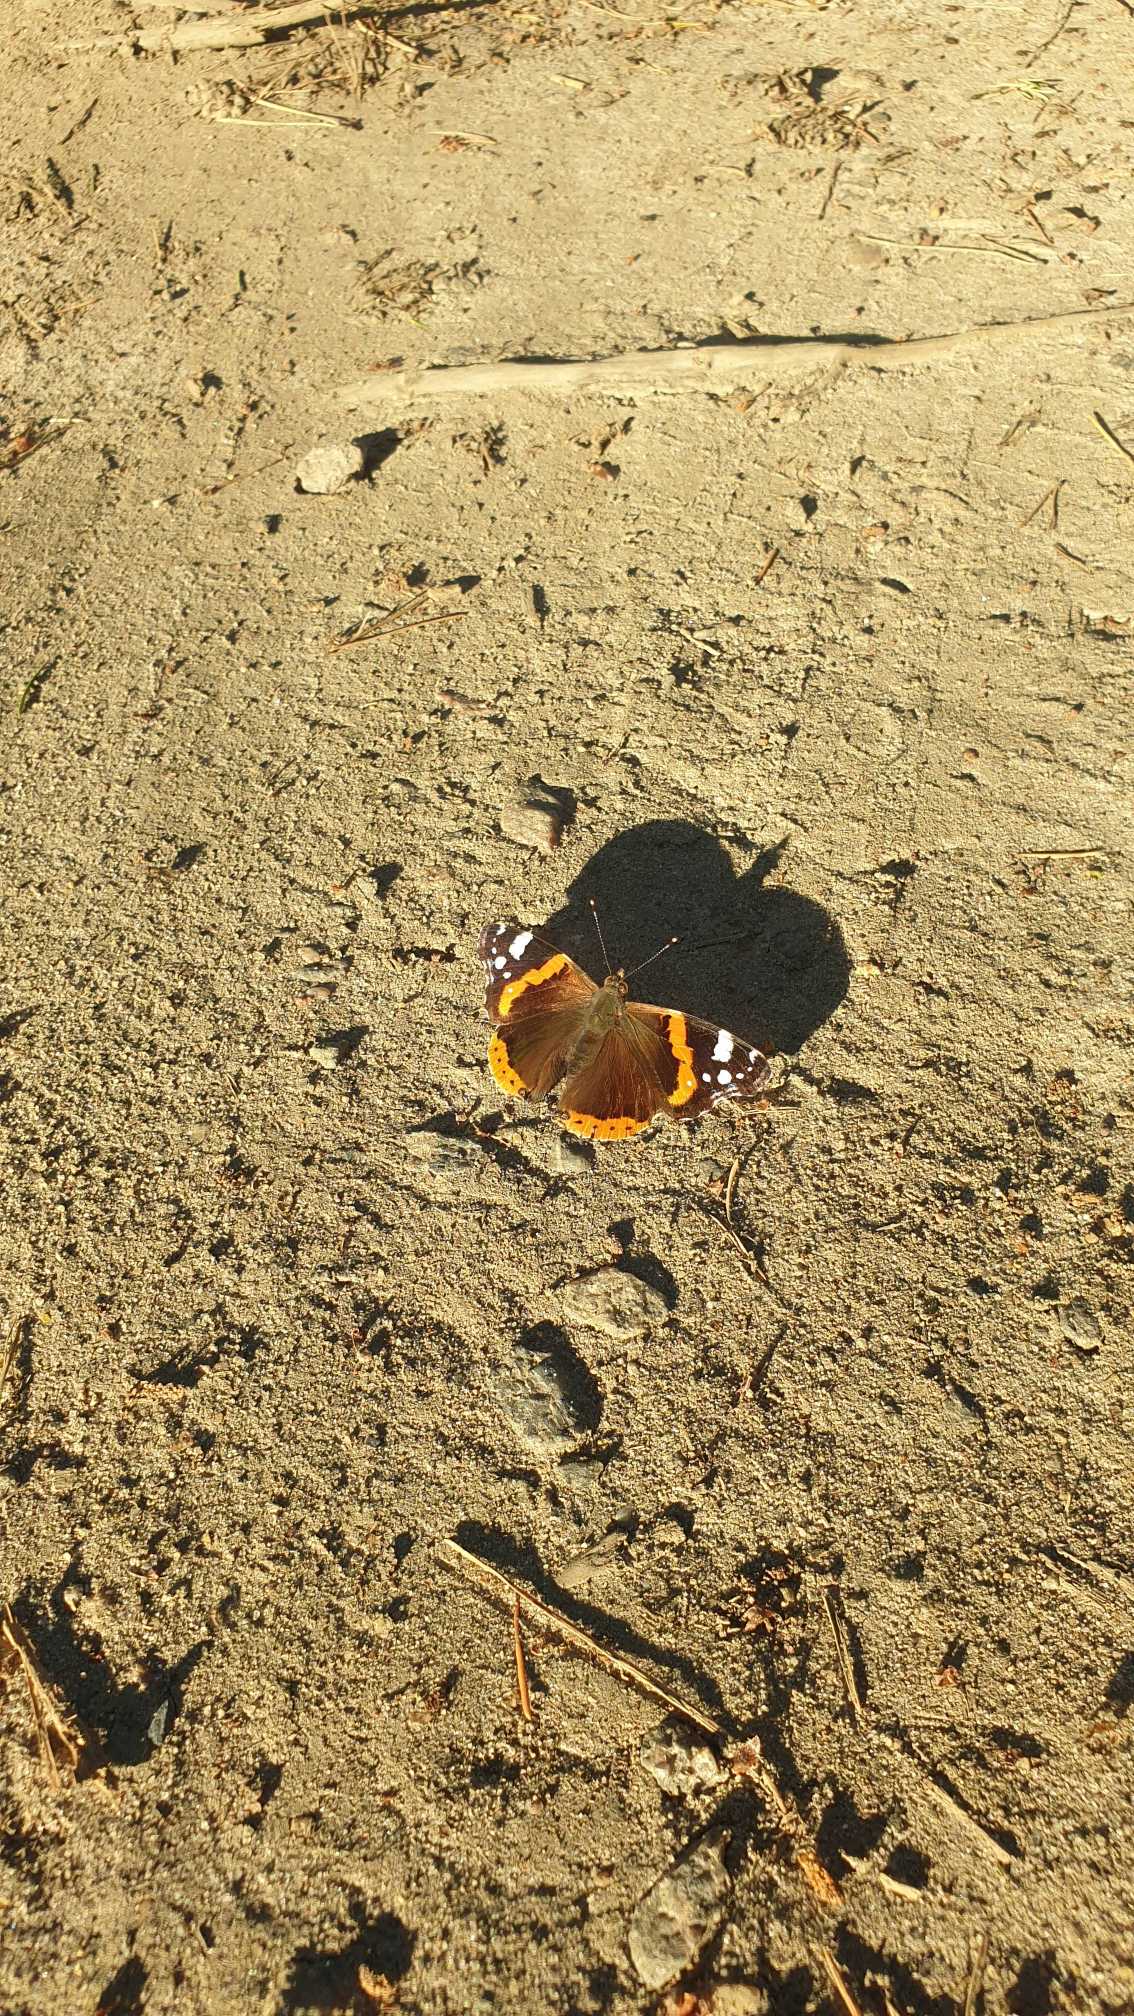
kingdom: Animalia
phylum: Arthropoda
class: Insecta
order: Lepidoptera
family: Nymphalidae
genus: Vanessa
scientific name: Vanessa atalanta
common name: Admiral
